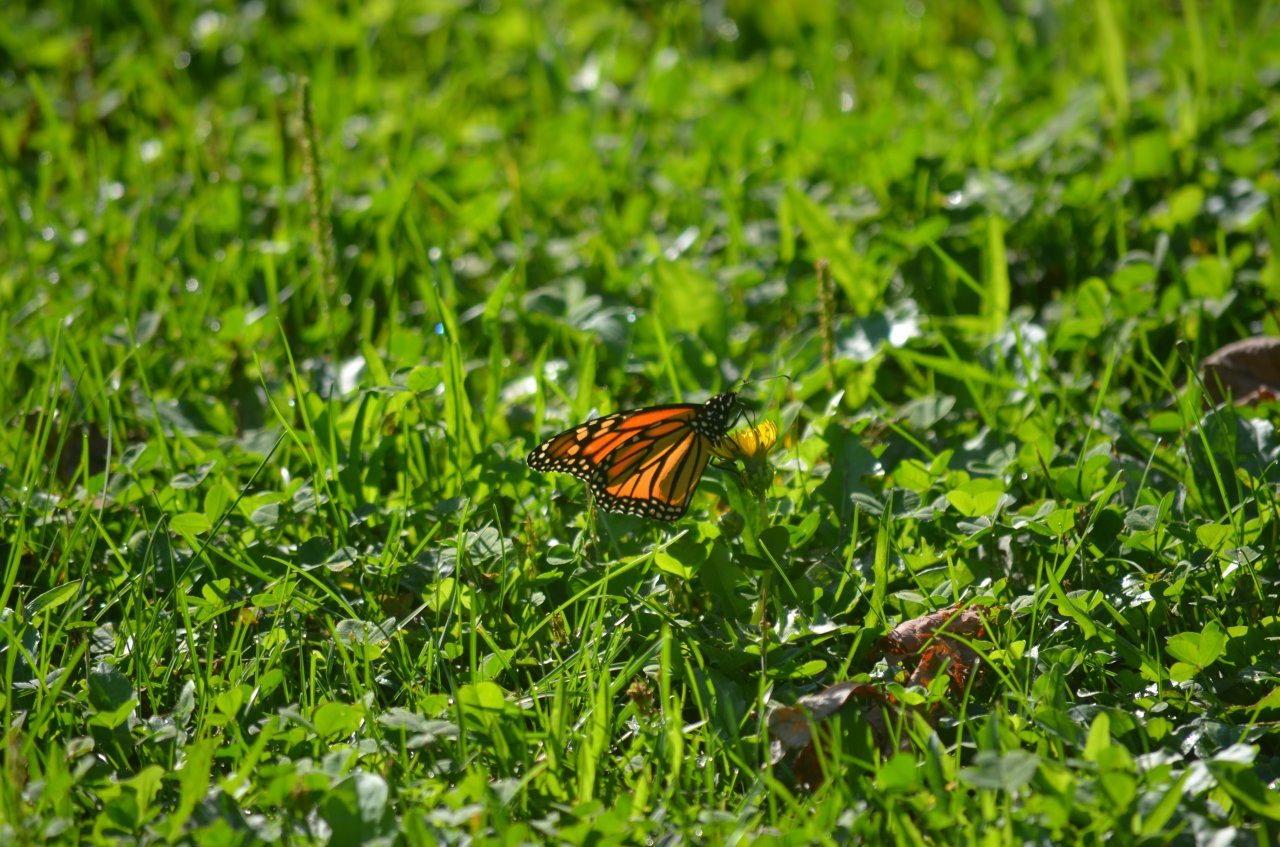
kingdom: Animalia
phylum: Arthropoda
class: Insecta
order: Lepidoptera
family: Nymphalidae
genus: Danaus
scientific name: Danaus plexippus
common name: Monarch
